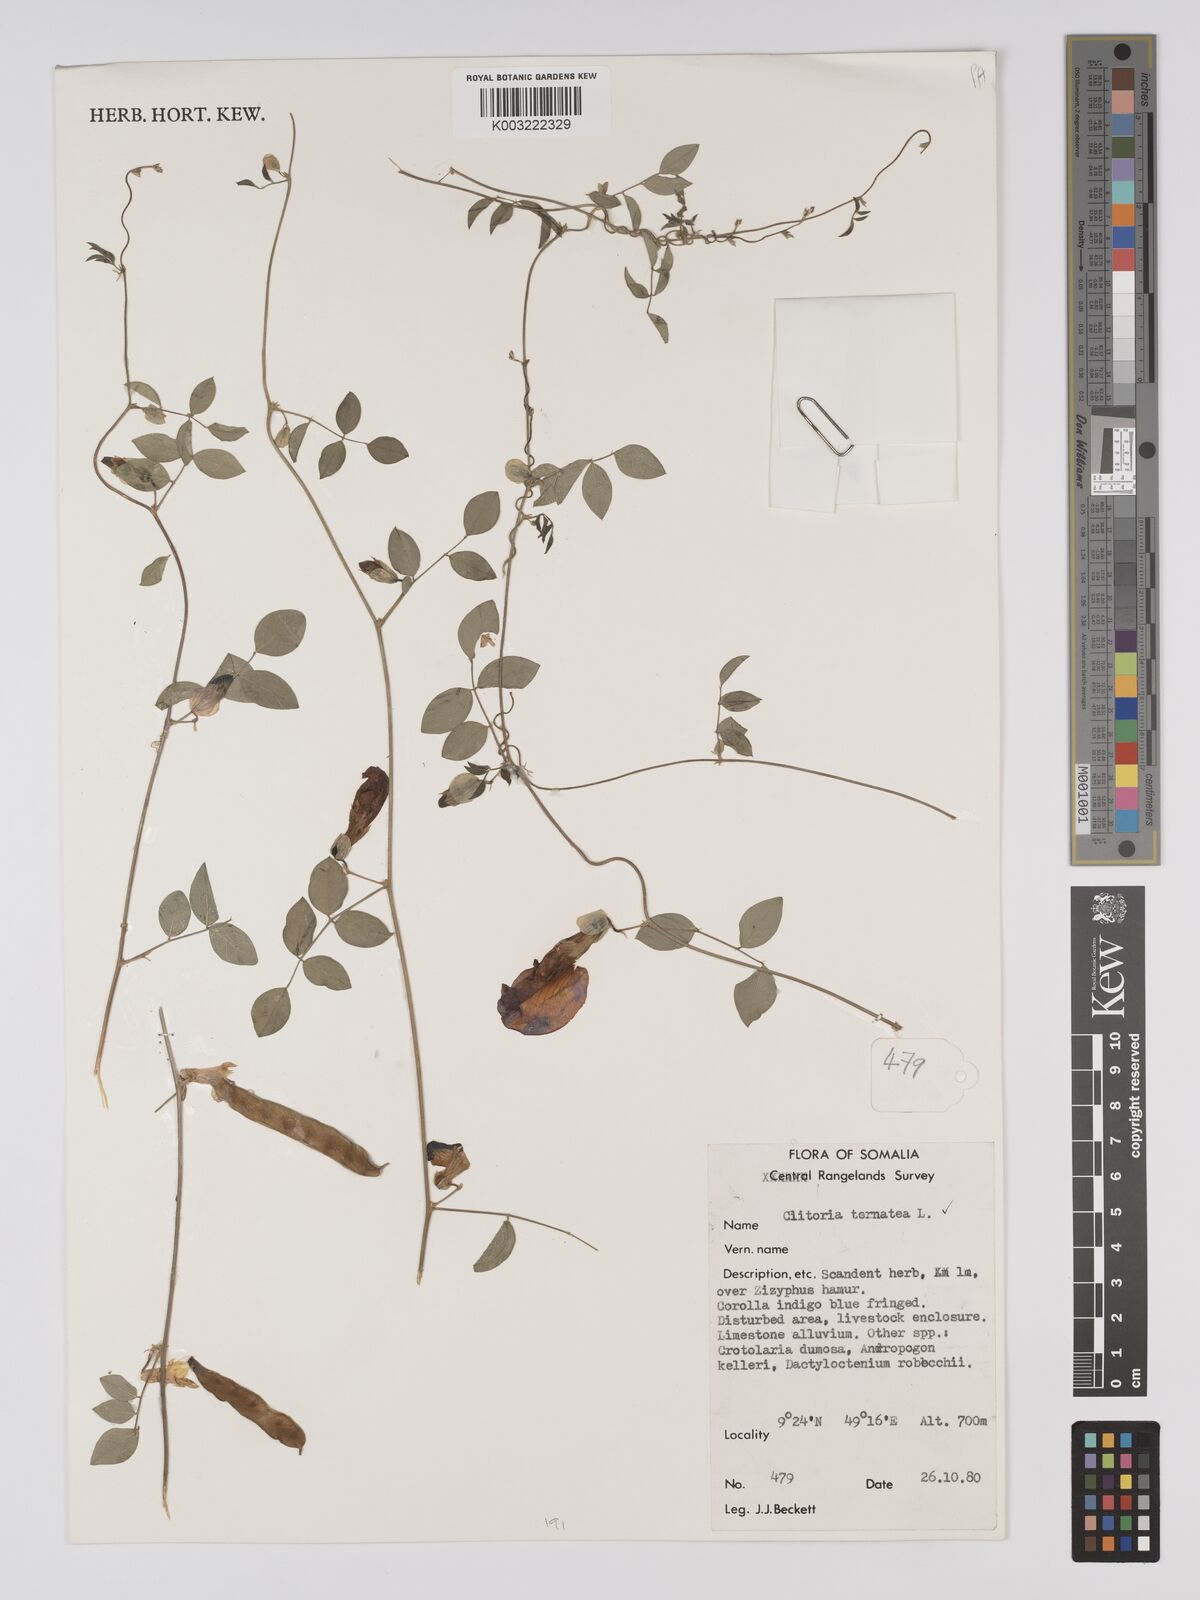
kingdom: Plantae
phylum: Tracheophyta
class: Magnoliopsida
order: Fabales
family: Fabaceae
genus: Clitoria
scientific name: Clitoria ternatea
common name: Asian pigeonwings
